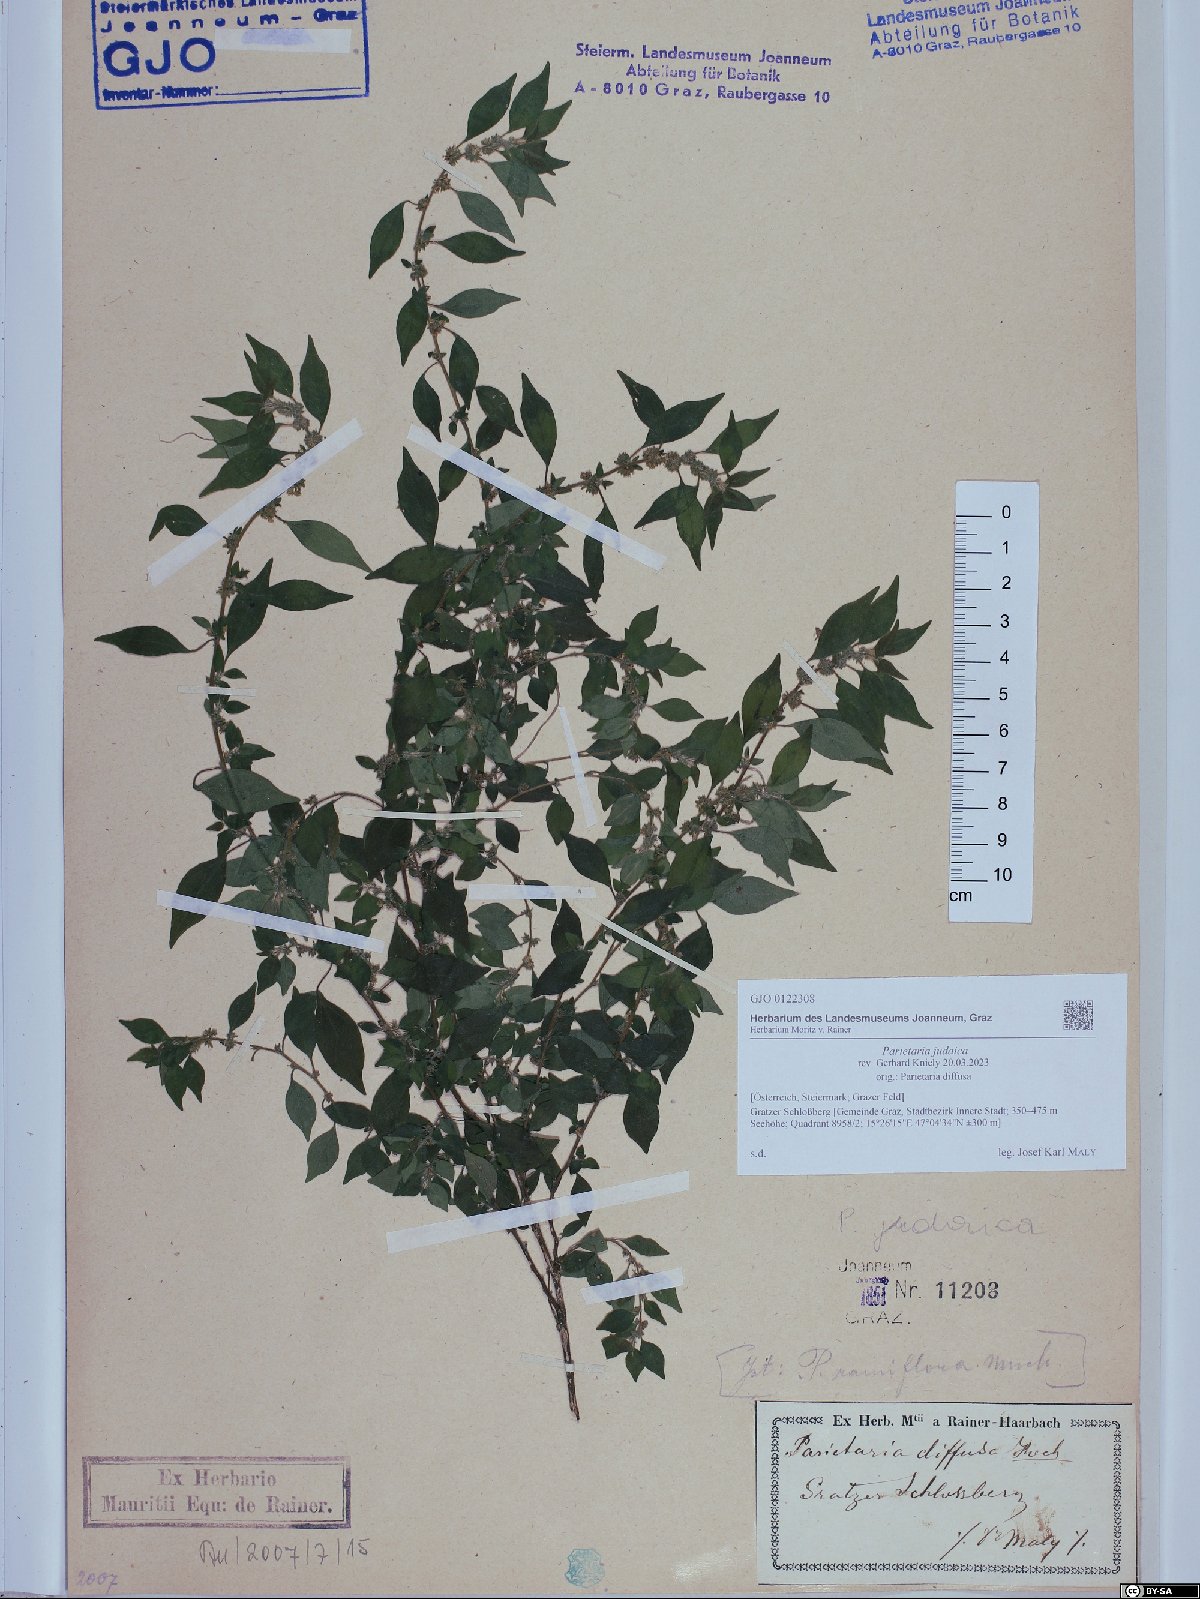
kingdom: Plantae
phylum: Tracheophyta
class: Magnoliopsida
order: Rosales
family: Urticaceae
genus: Parietaria
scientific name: Parietaria judaica
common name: Pellitory-of-the-wall
